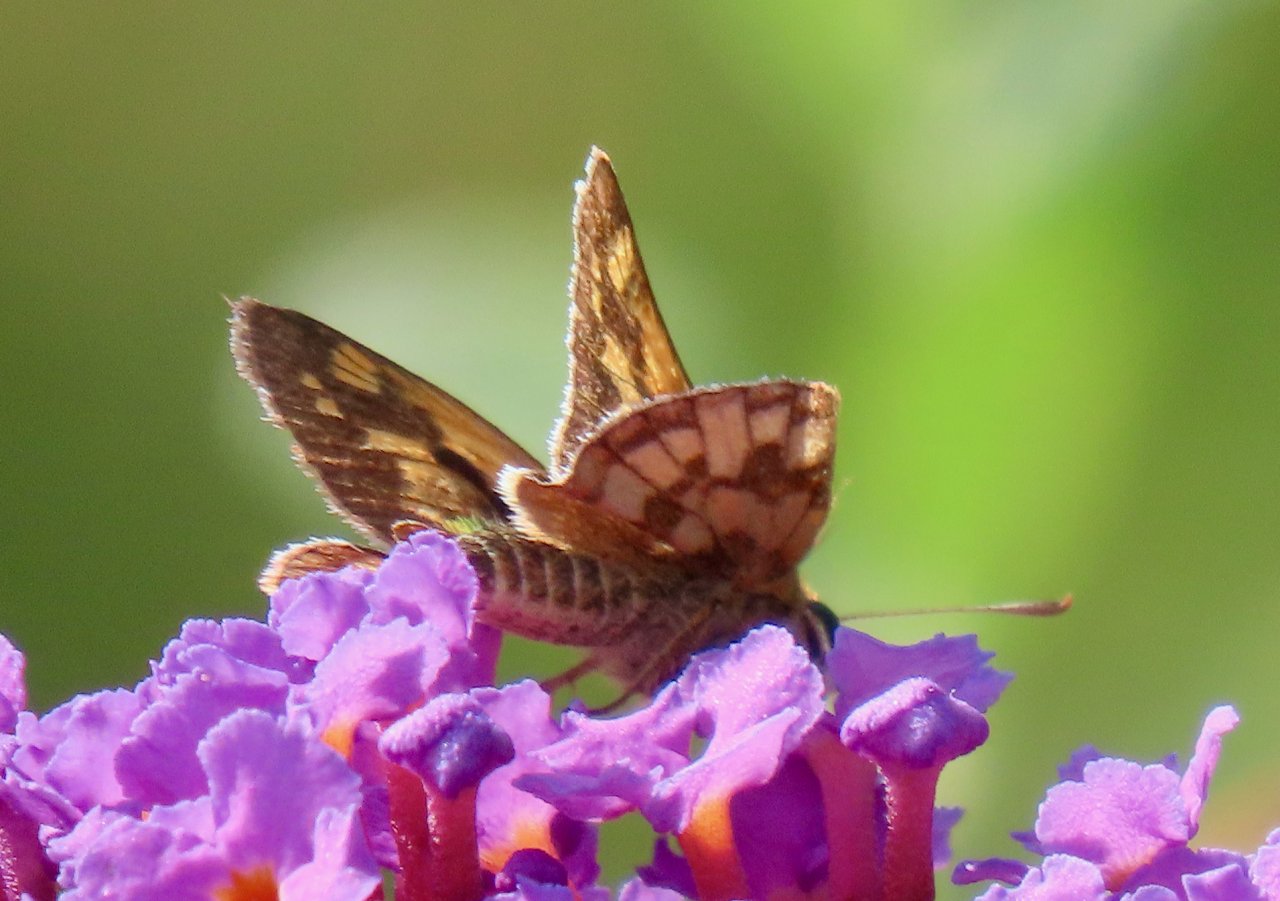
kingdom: Animalia
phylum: Arthropoda
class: Insecta
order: Lepidoptera
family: Hesperiidae
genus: Polites
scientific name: Polites coras
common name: Peck's Skipper
